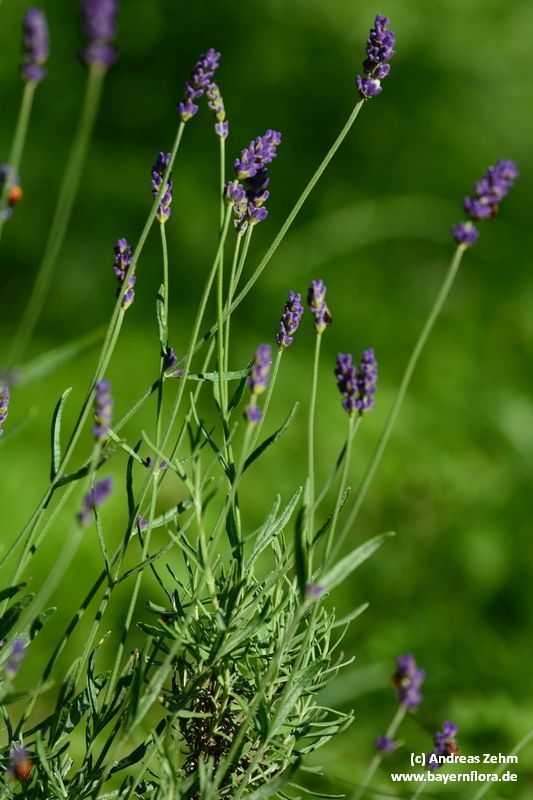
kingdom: Plantae
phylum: Tracheophyta
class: Magnoliopsida
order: Lamiales
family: Lamiaceae
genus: Lavandula
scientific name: Lavandula angustifolia
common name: Garden lavender
